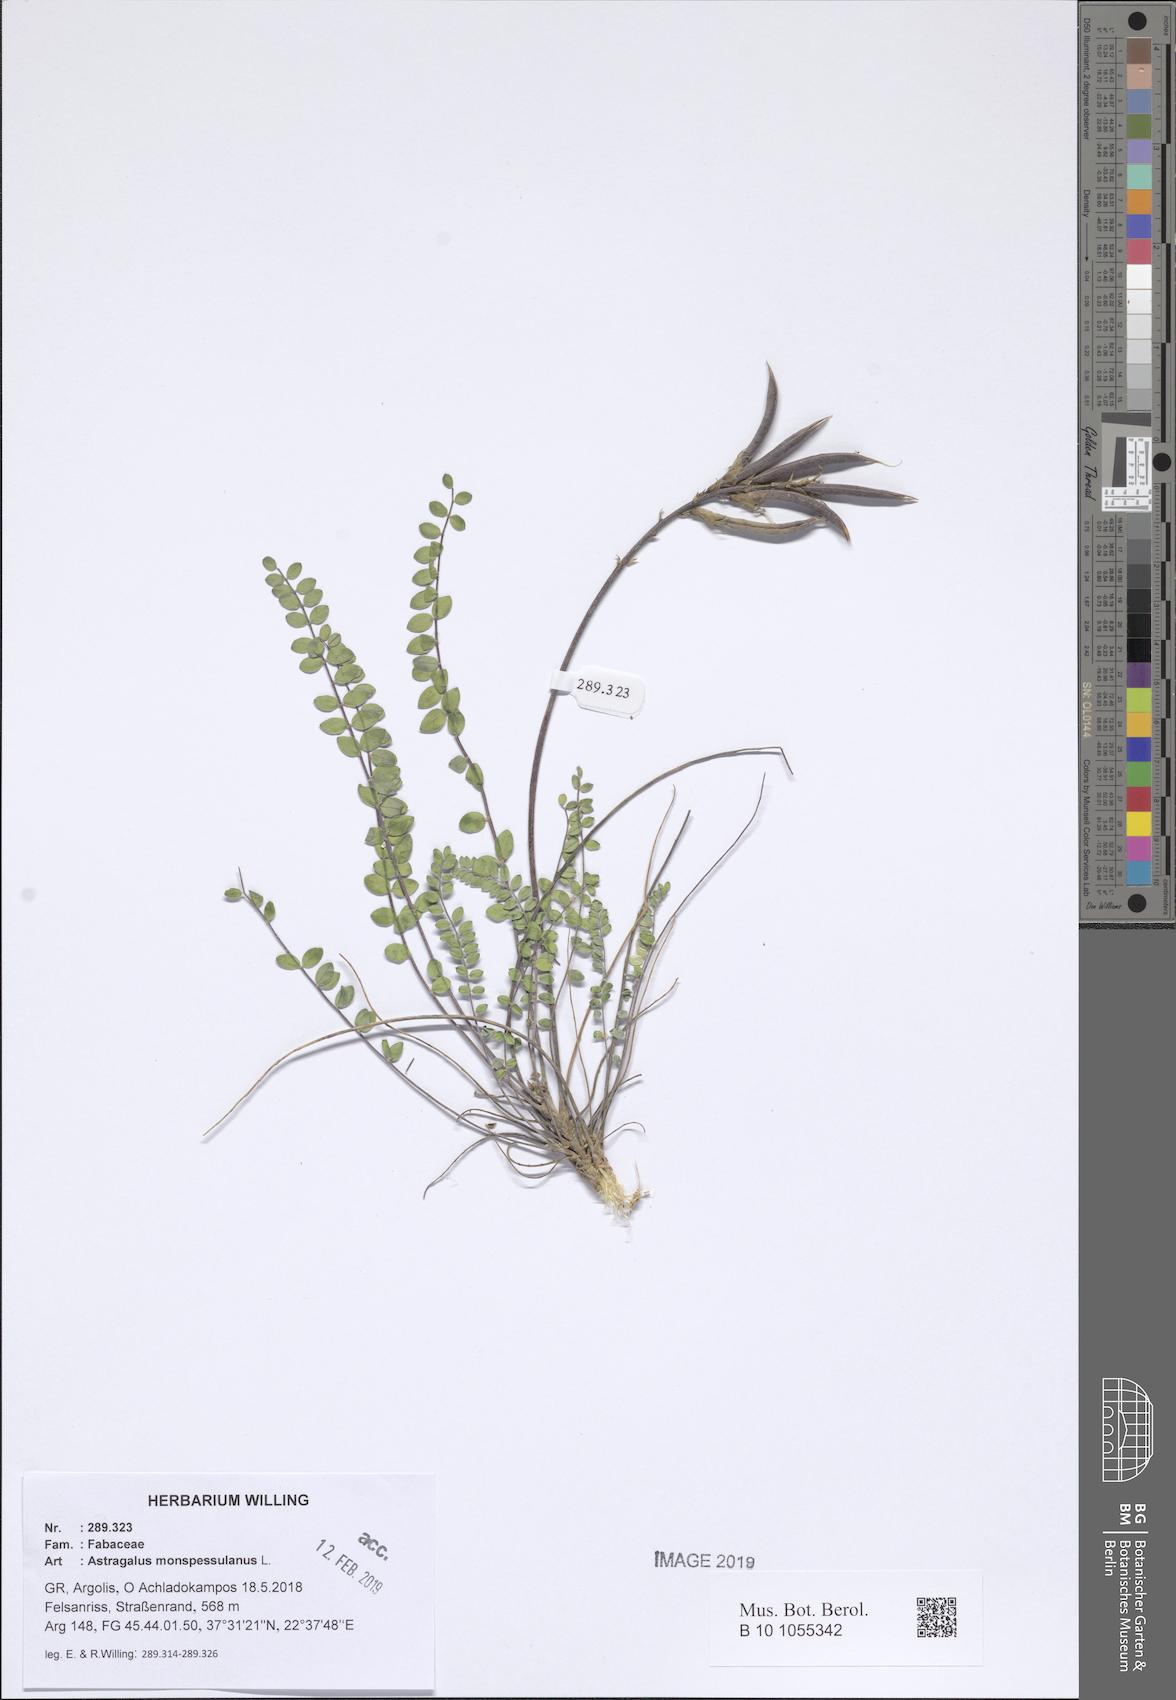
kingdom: Plantae
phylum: Tracheophyta
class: Magnoliopsida
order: Fabales
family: Fabaceae
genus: Astragalus
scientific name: Astragalus monspessulanus
